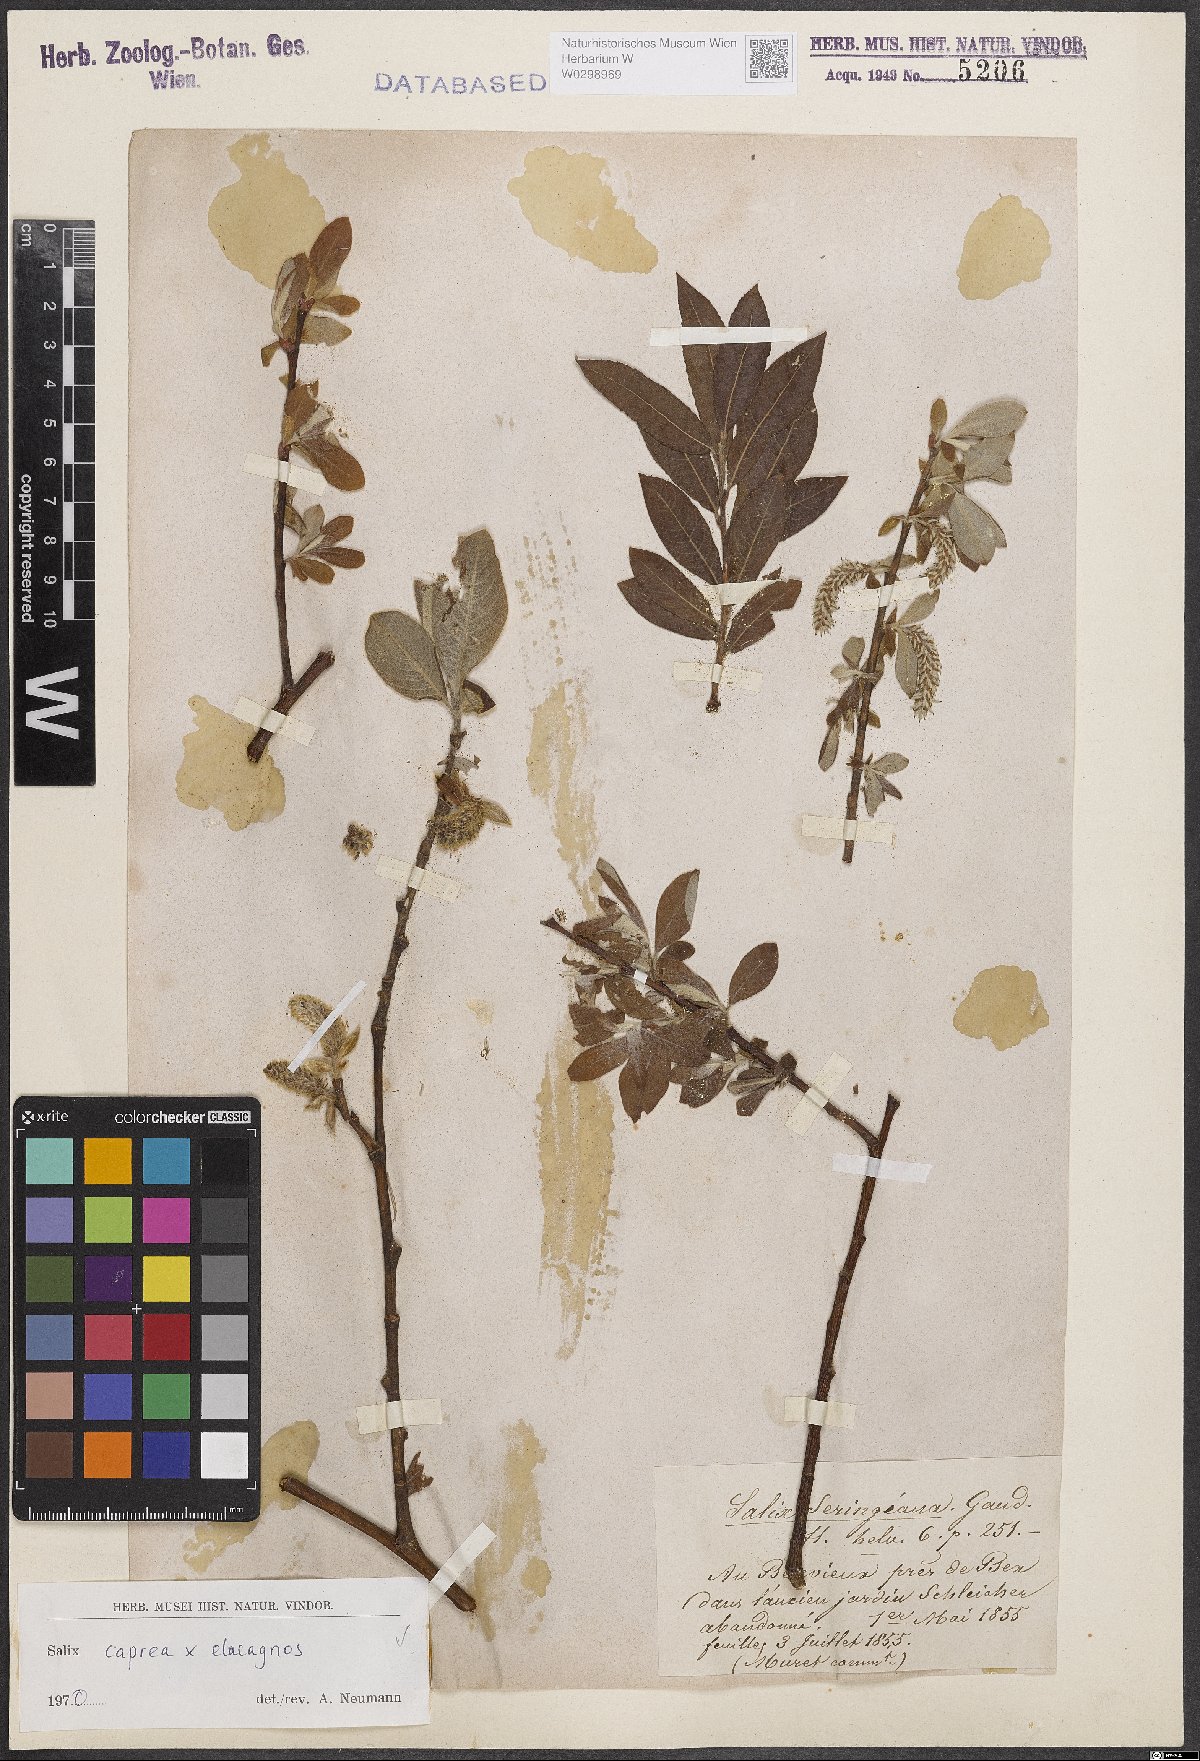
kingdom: Plantae
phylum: Tracheophyta
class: Magnoliopsida
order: Malpighiales
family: Salicaceae
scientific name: Salicaceae
